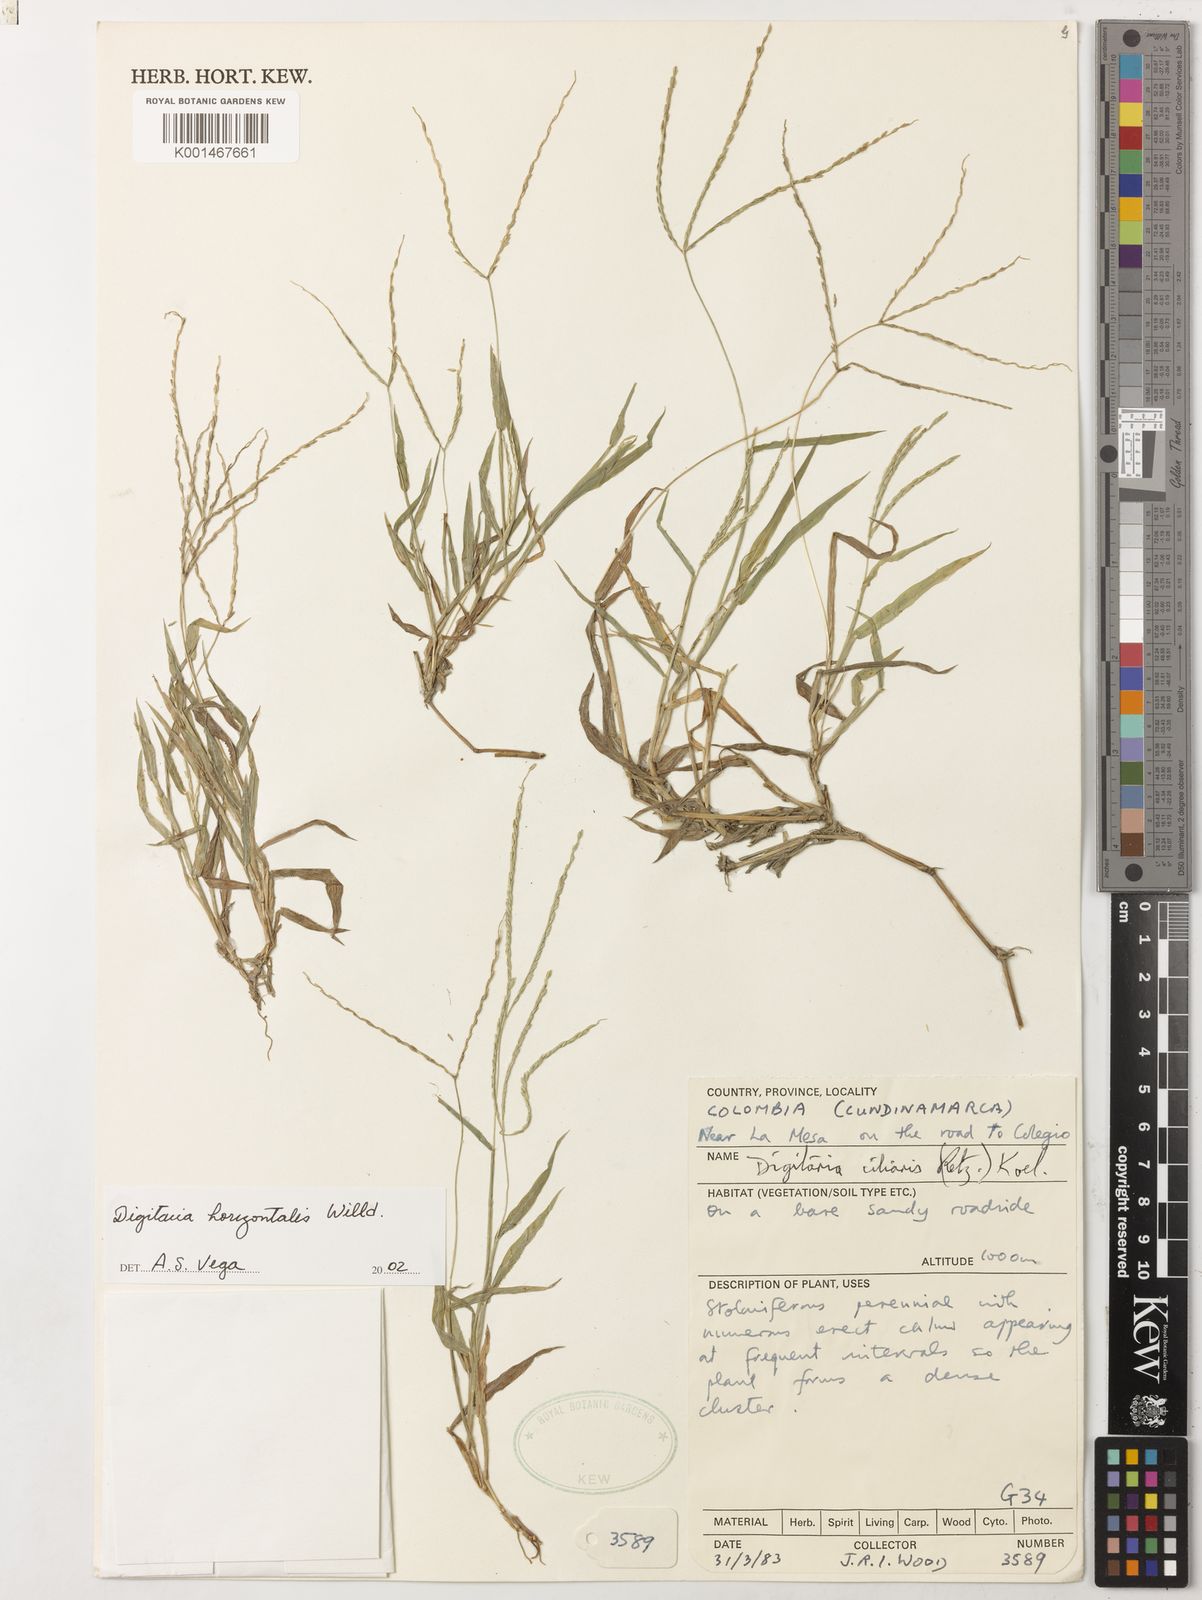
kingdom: Plantae
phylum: Tracheophyta
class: Liliopsida
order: Poales
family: Poaceae
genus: Digitaria
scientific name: Digitaria horizontalis
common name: Jamaican crabgrass
